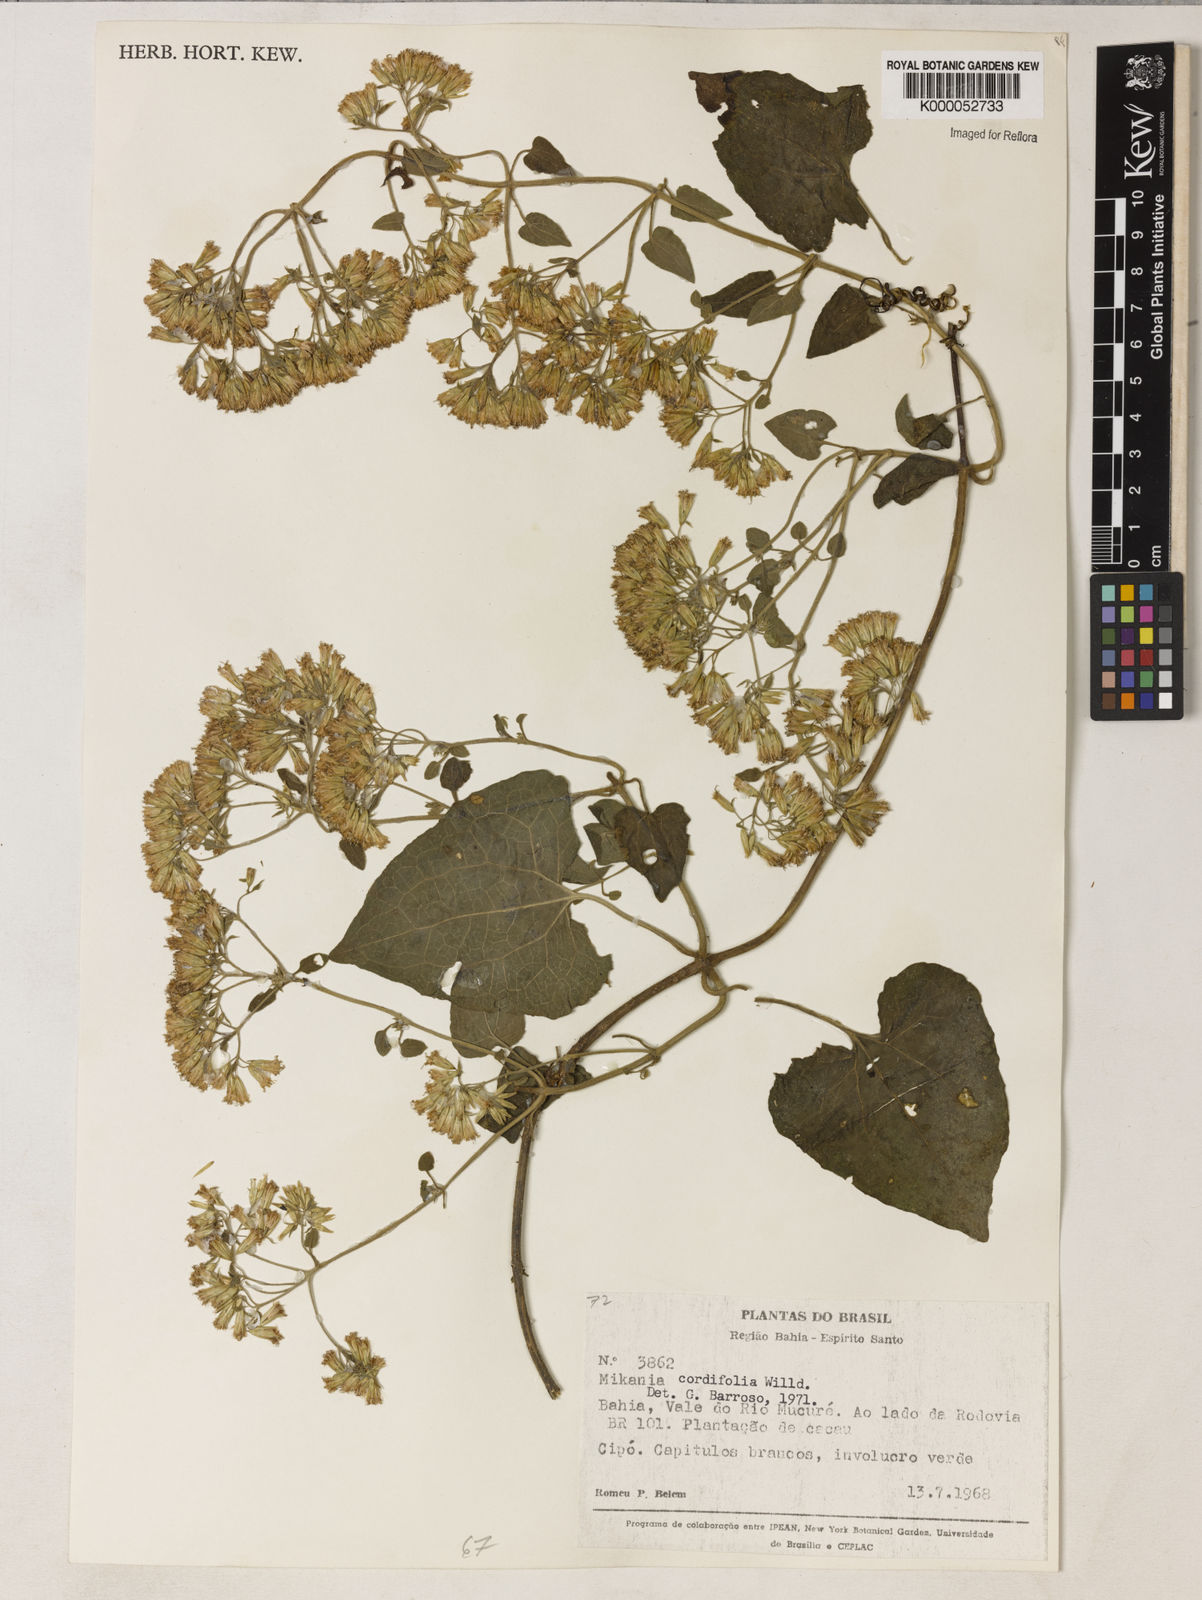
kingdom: Plantae
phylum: Tracheophyta
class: Magnoliopsida
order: Asterales
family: Asteraceae
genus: Mikania
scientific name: Mikania cordifolia
